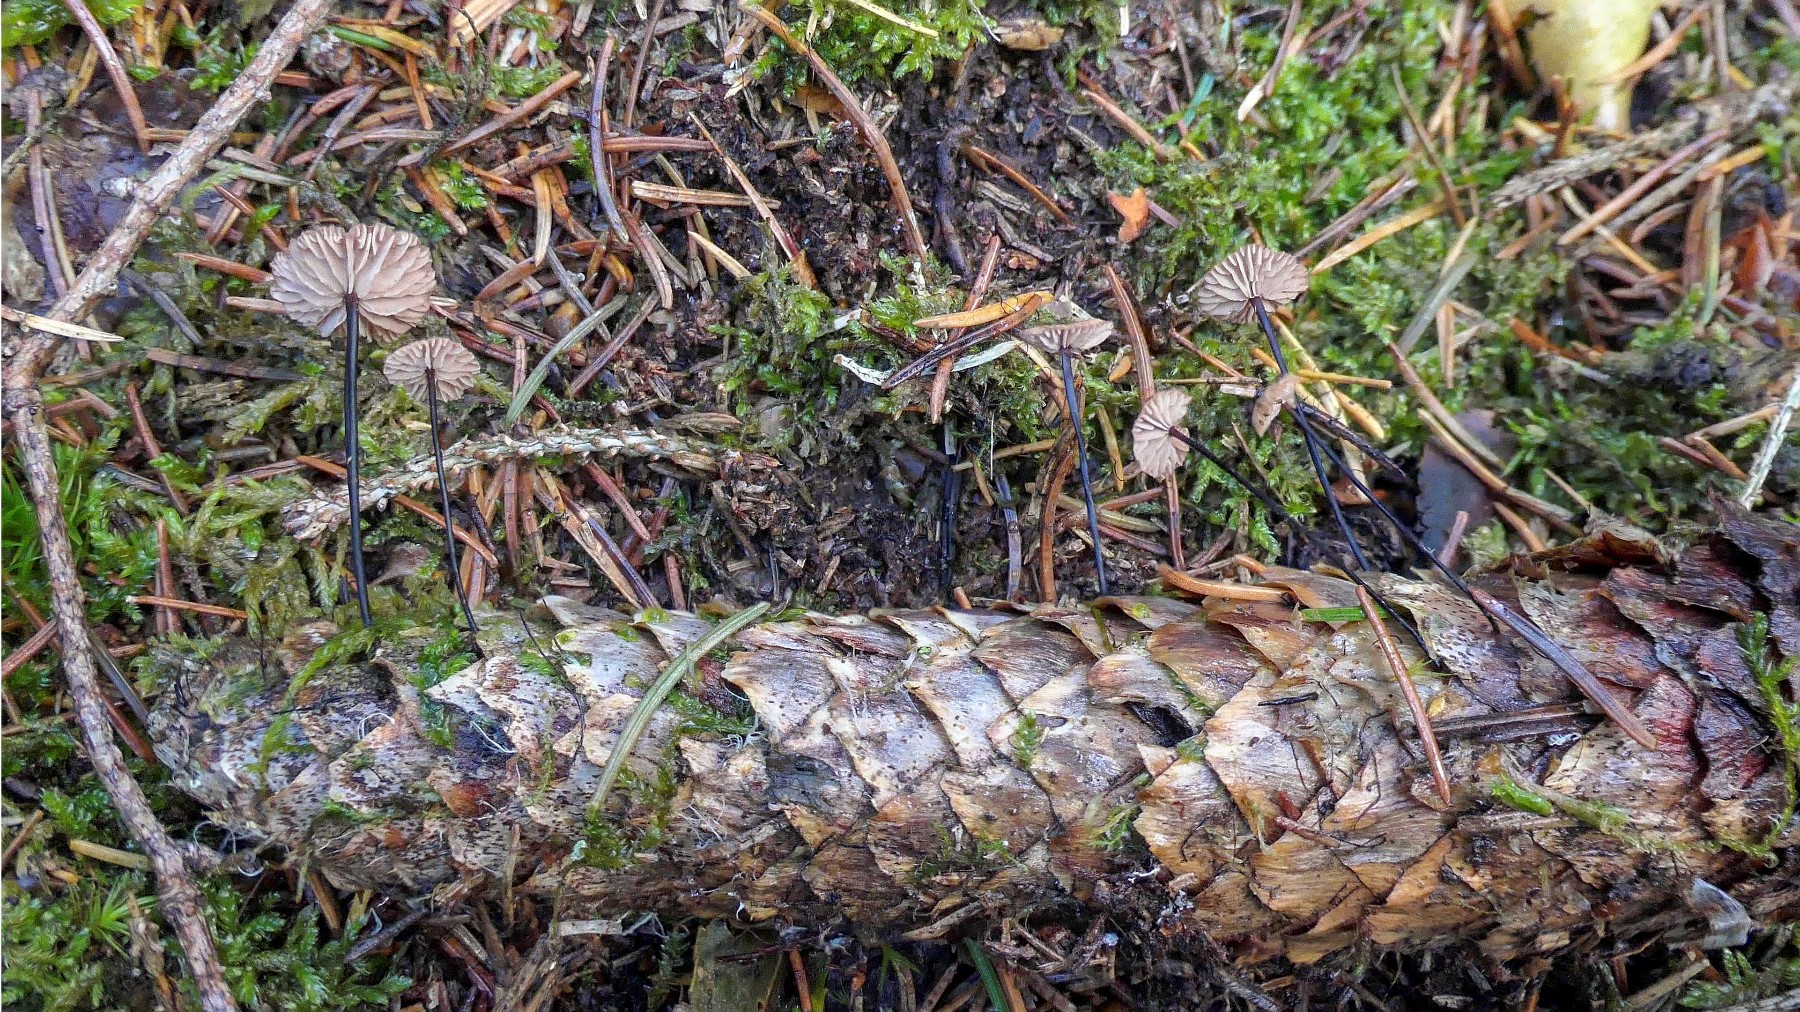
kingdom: Fungi
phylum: Basidiomycota
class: Agaricomycetes
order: Agaricales
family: Omphalotaceae
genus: Gymnopus
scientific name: Gymnopus androsaceus
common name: trådstokket fladhat
